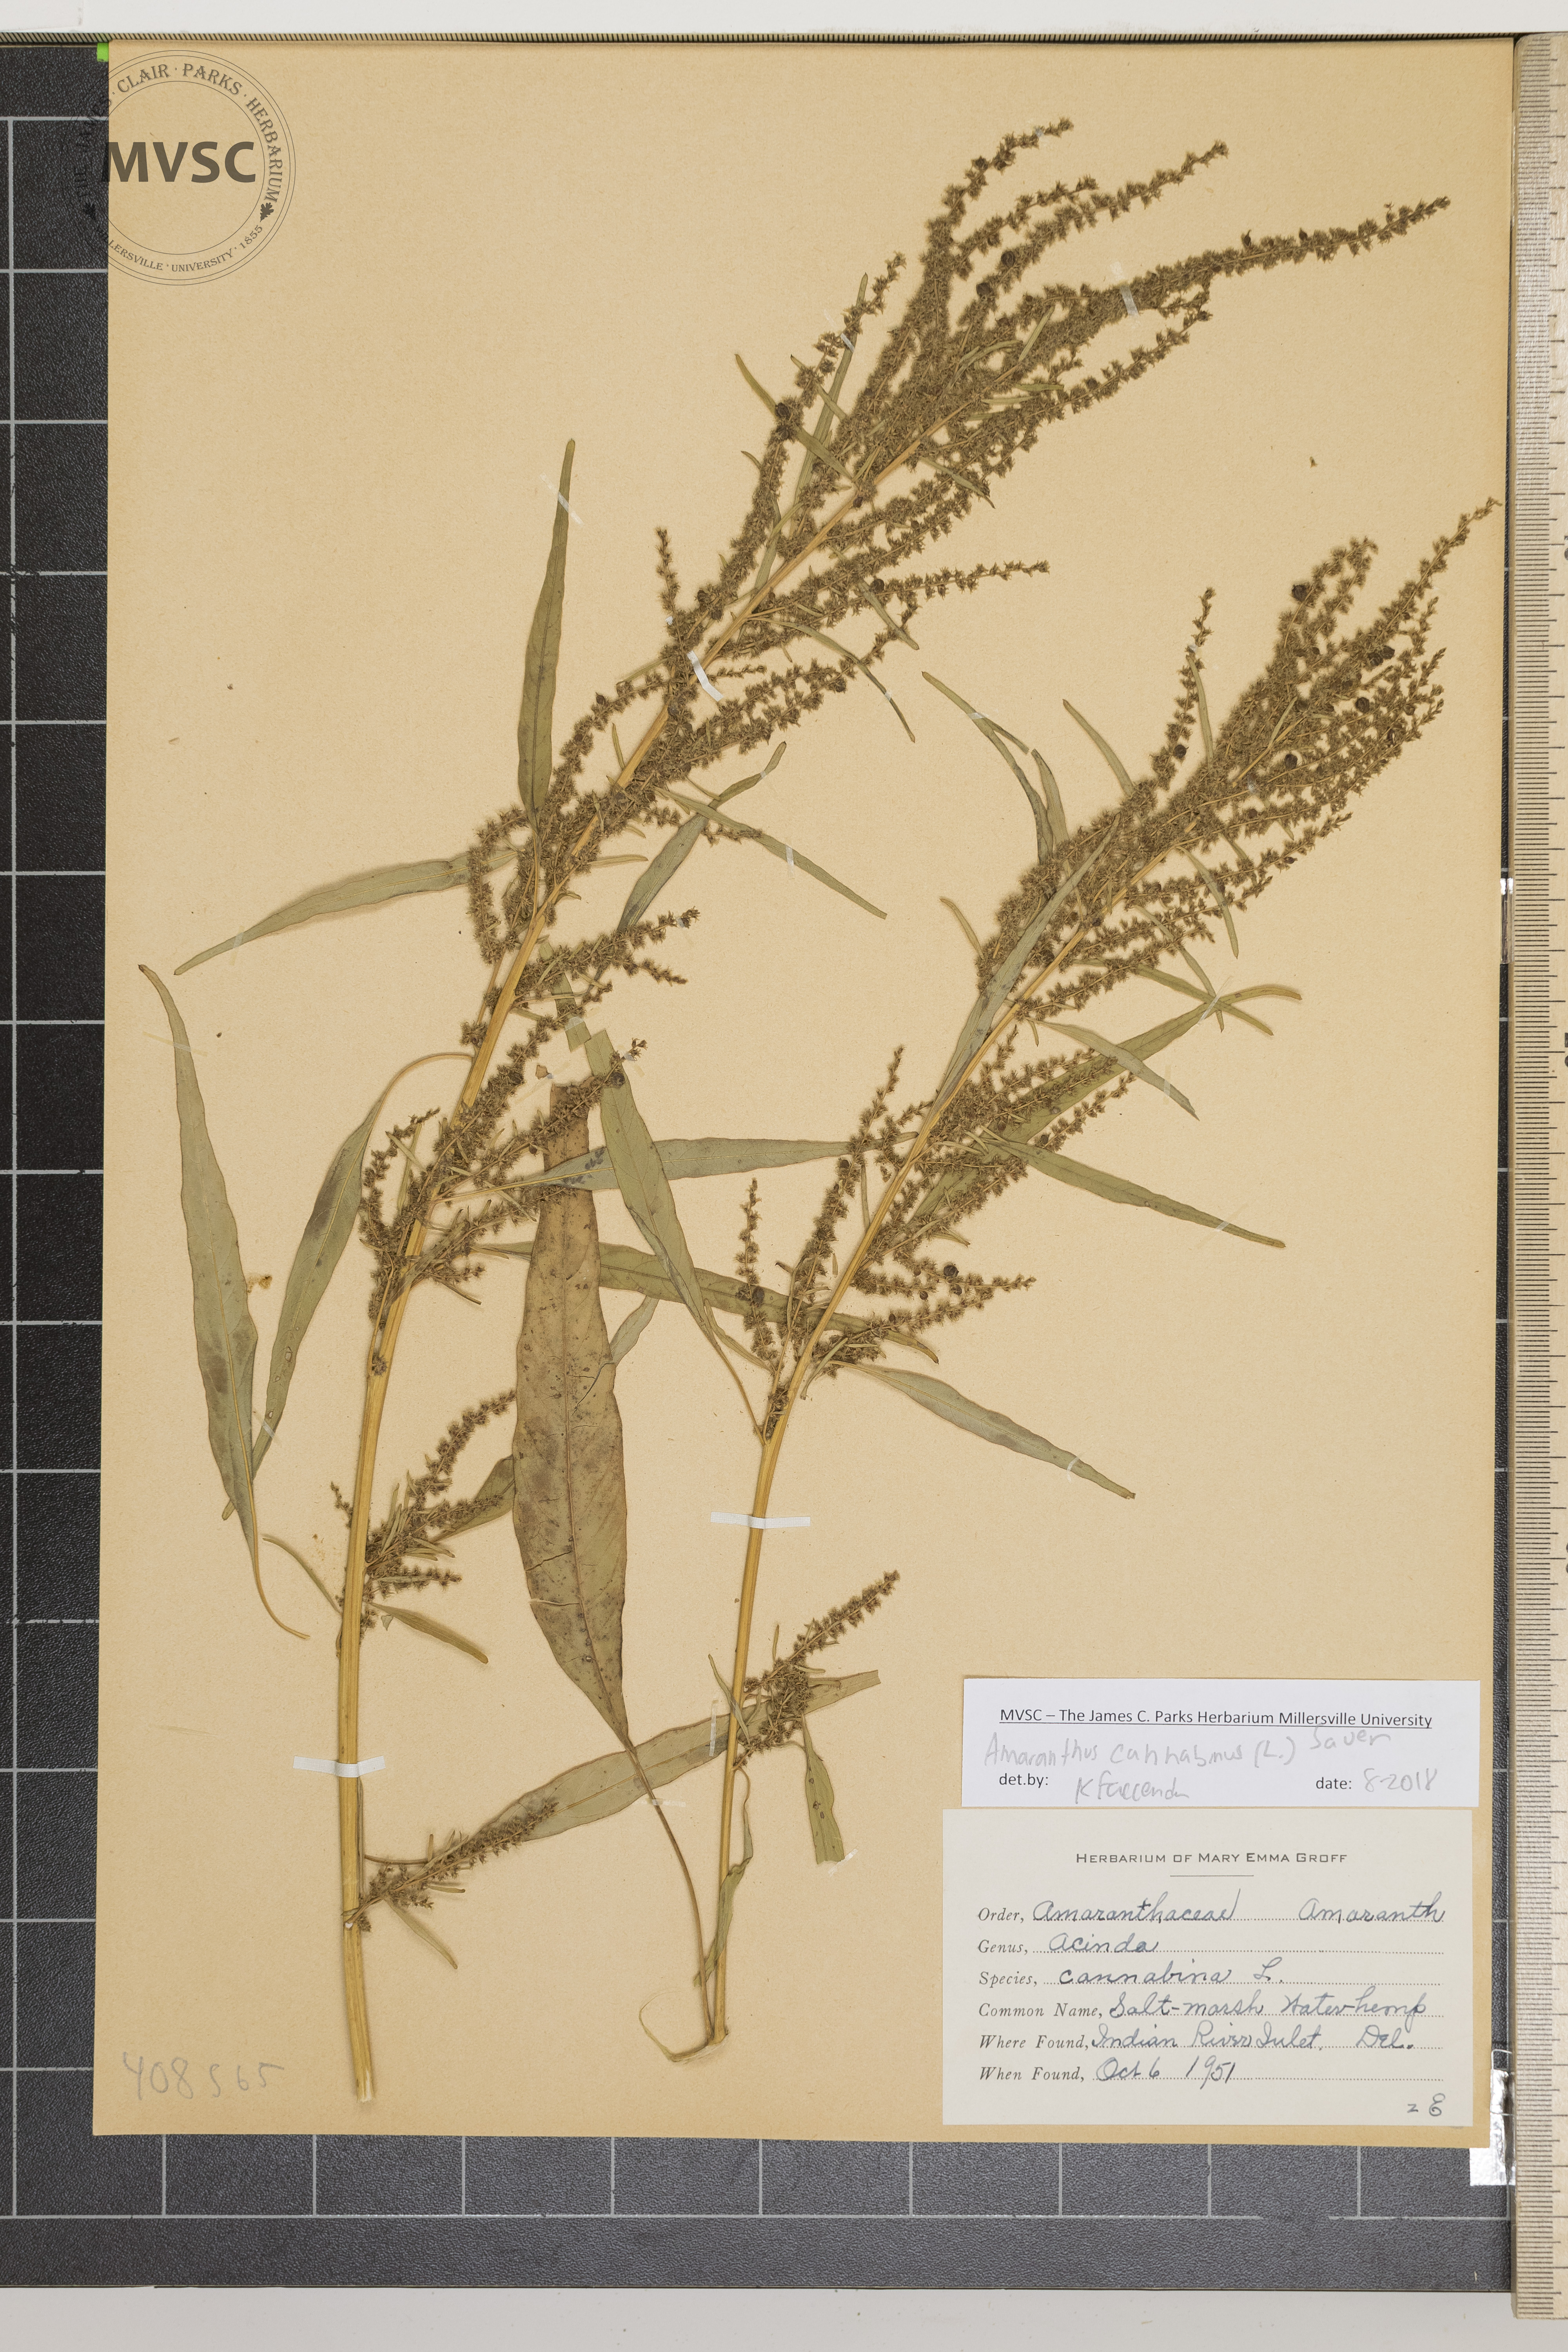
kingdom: Plantae
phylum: Tracheophyta
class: Magnoliopsida
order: Caryophyllales
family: Amaranthaceae
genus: Amaranthus
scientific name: Amaranthus cannabinus
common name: Salt-marsh Water-hemp
